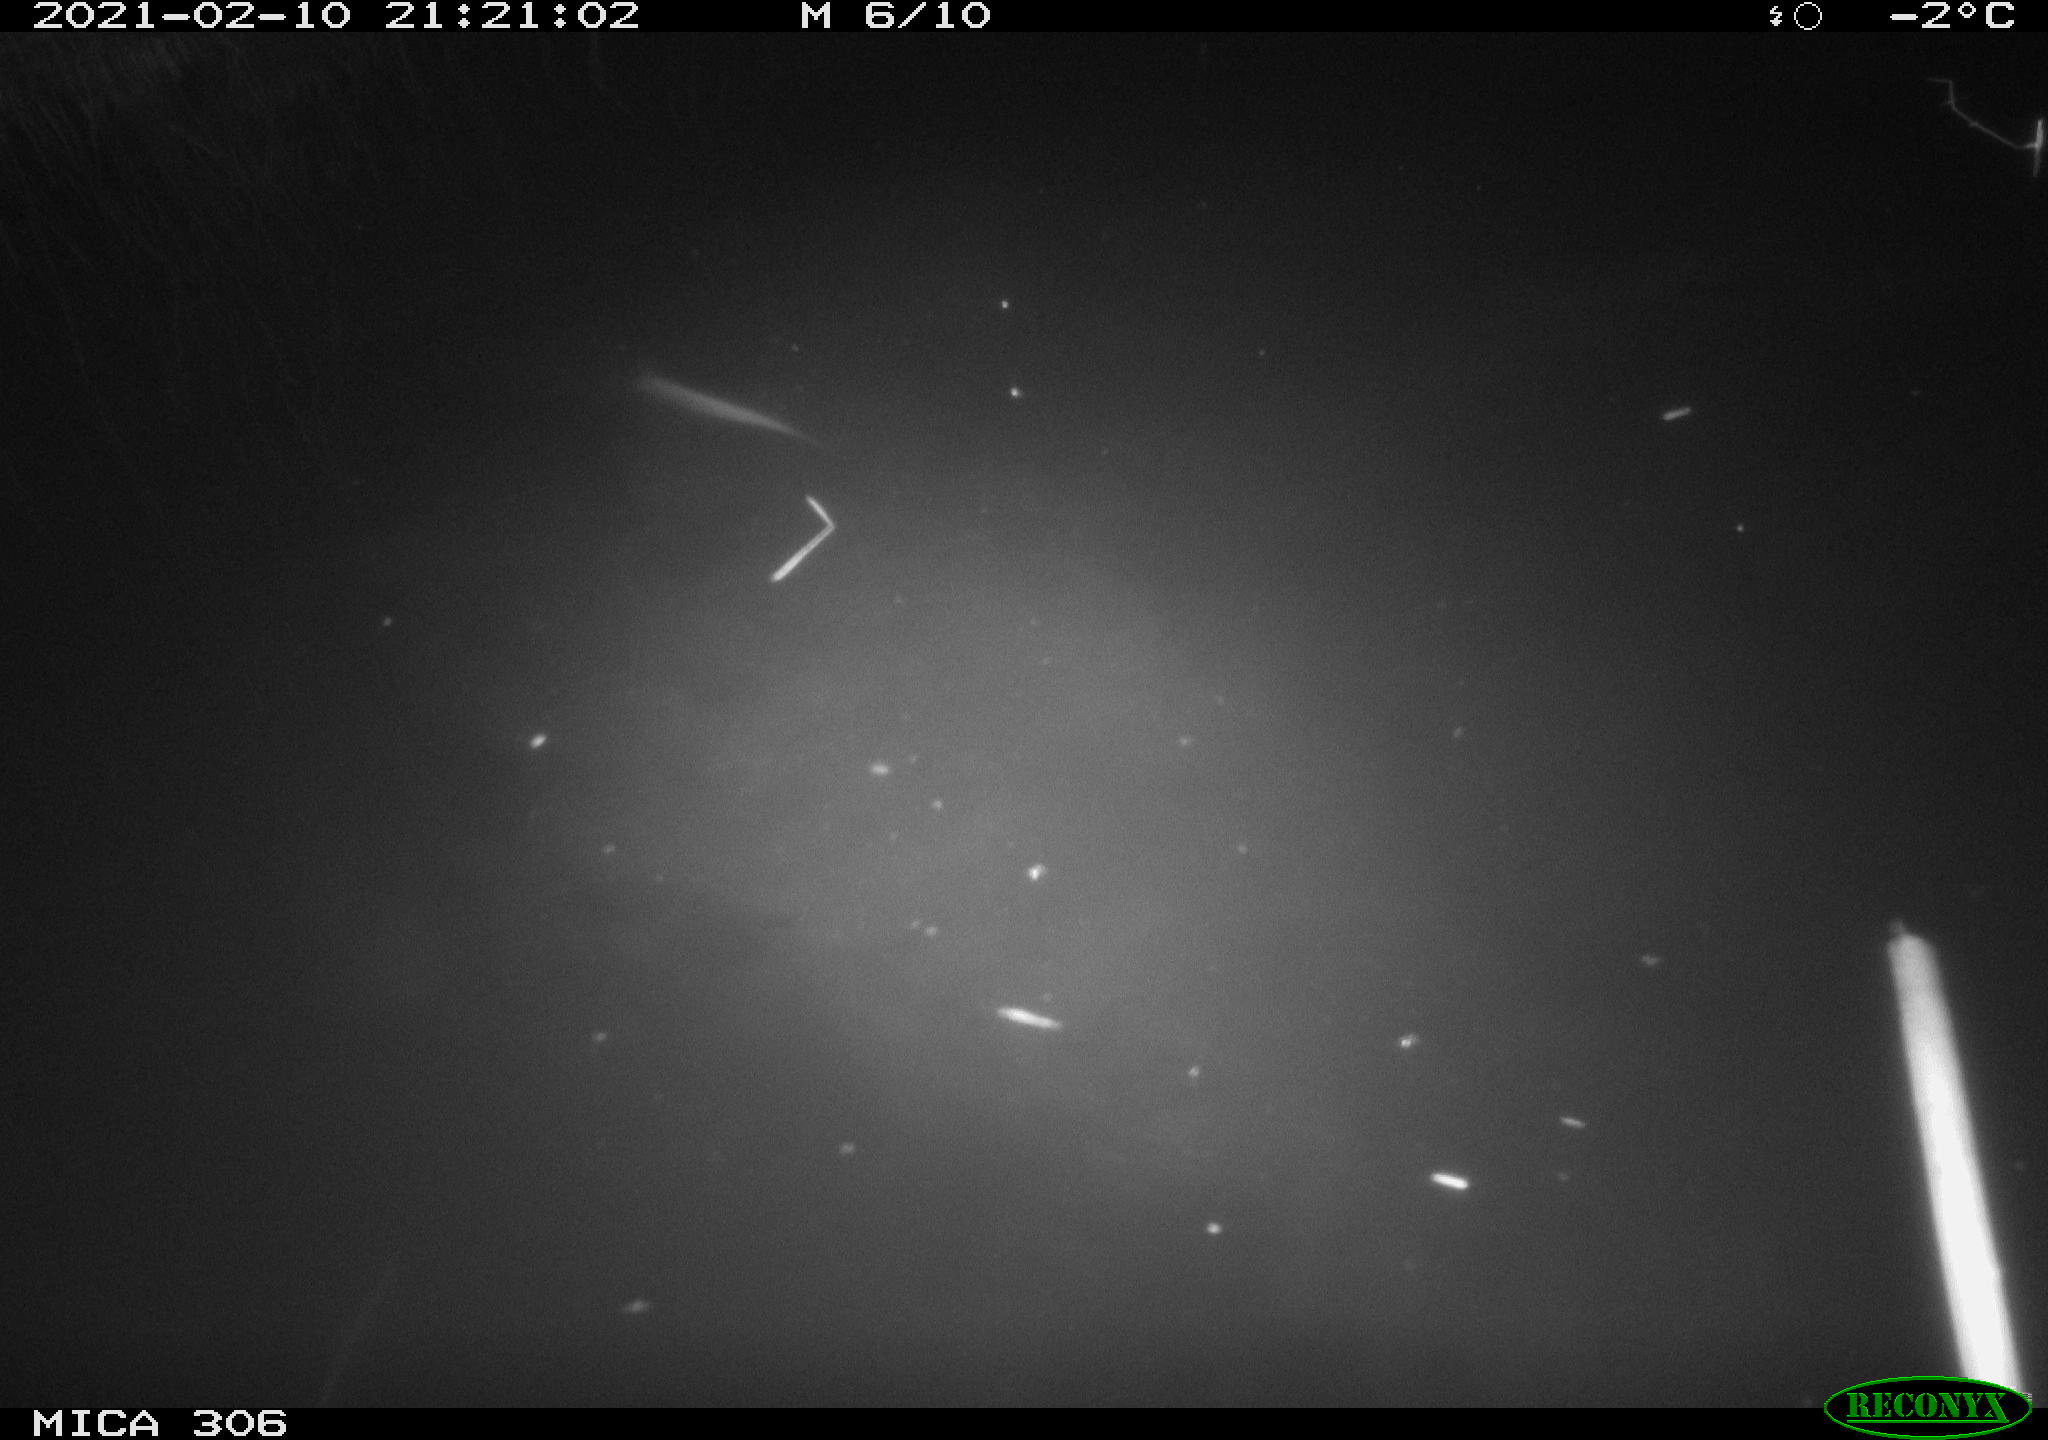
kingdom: Animalia
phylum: Chordata
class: Aves
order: Anseriformes
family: Anatidae
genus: Anas
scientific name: Anas platyrhynchos
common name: Mallard
